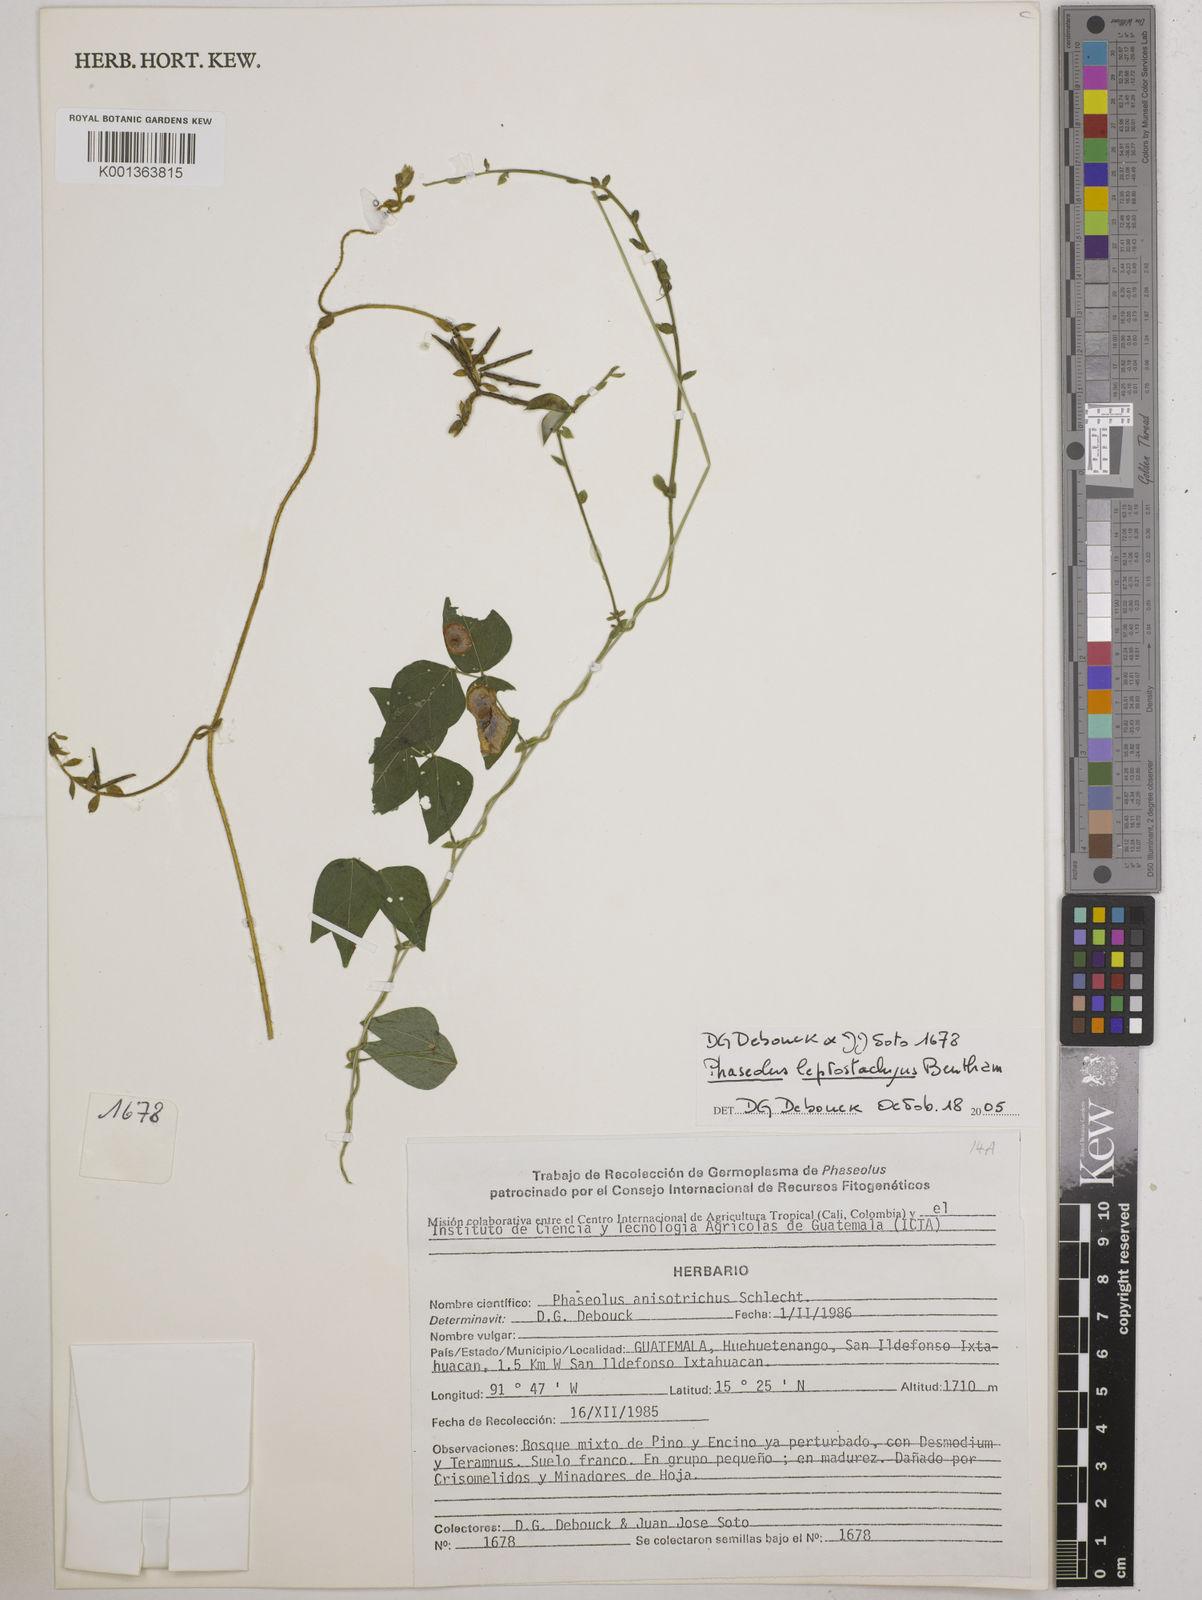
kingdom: Plantae
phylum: Tracheophyta
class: Magnoliopsida
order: Fabales
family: Fabaceae
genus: Phaseolus
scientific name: Phaseolus
